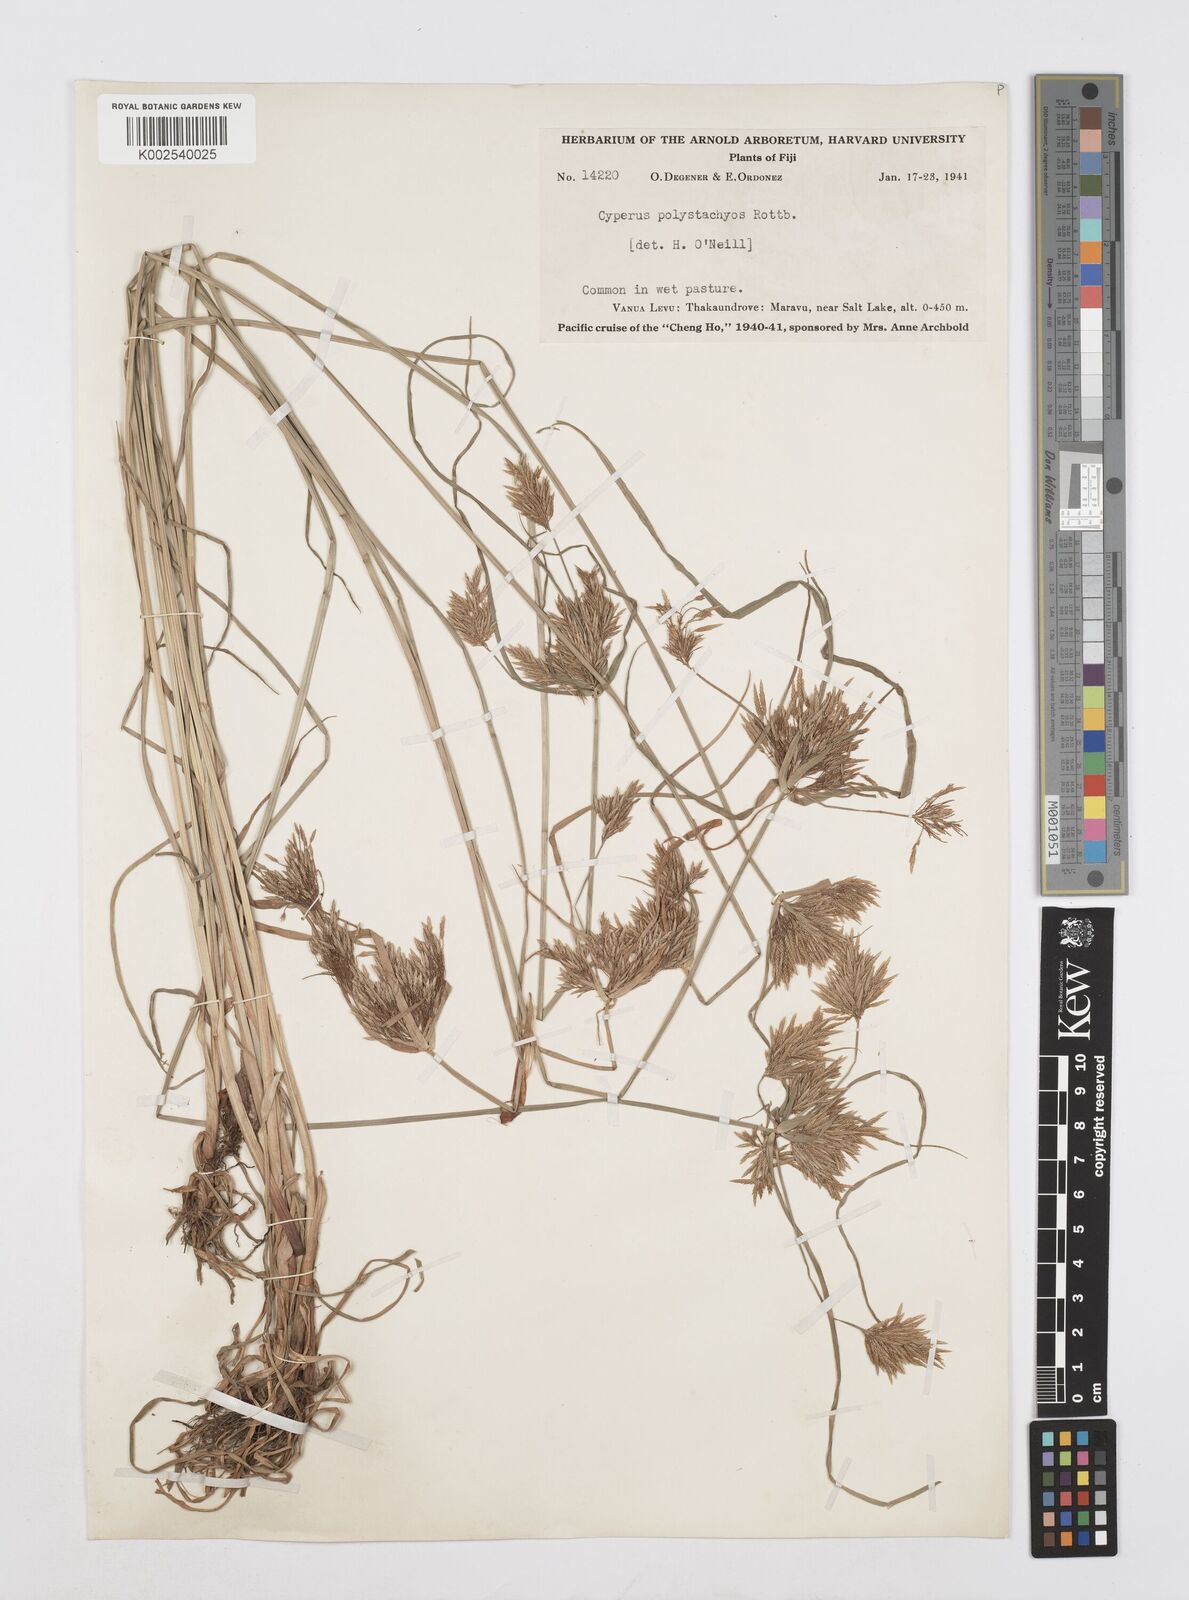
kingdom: Plantae
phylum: Tracheophyta
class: Liliopsida
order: Poales
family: Cyperaceae
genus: Cyperus
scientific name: Cyperus polystachyos
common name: Bunchy flat sedge
